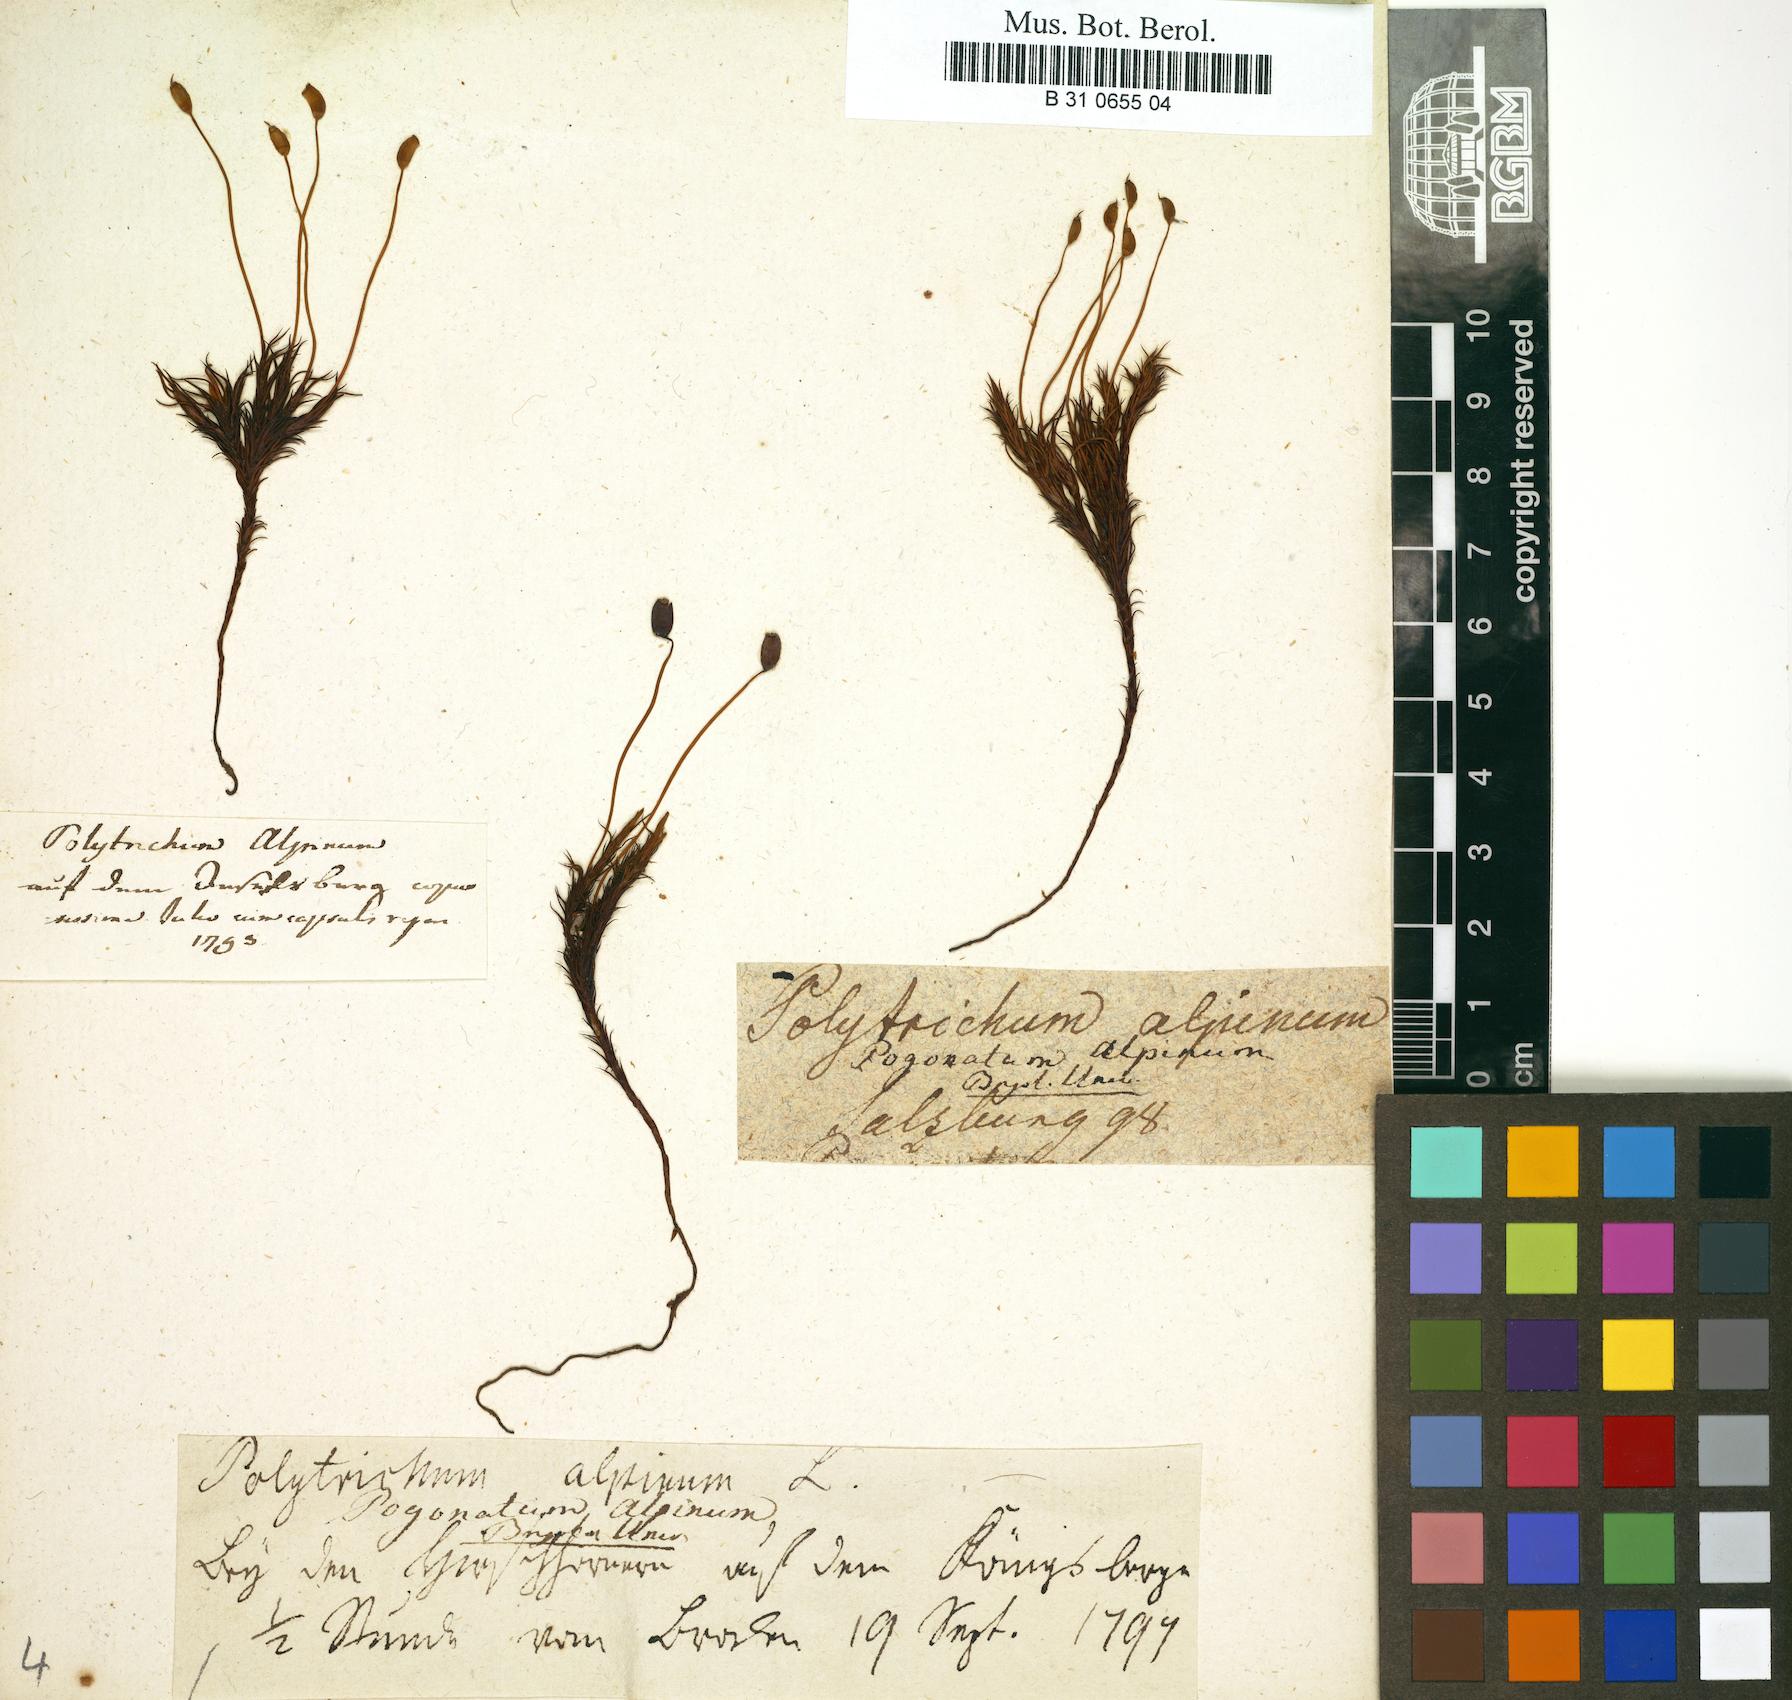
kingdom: Plantae
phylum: Bryophyta
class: Polytrichopsida
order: Polytrichales
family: Polytrichaceae
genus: Polytrichastrum
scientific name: Polytrichastrum alpinum
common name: Alpine haircap
